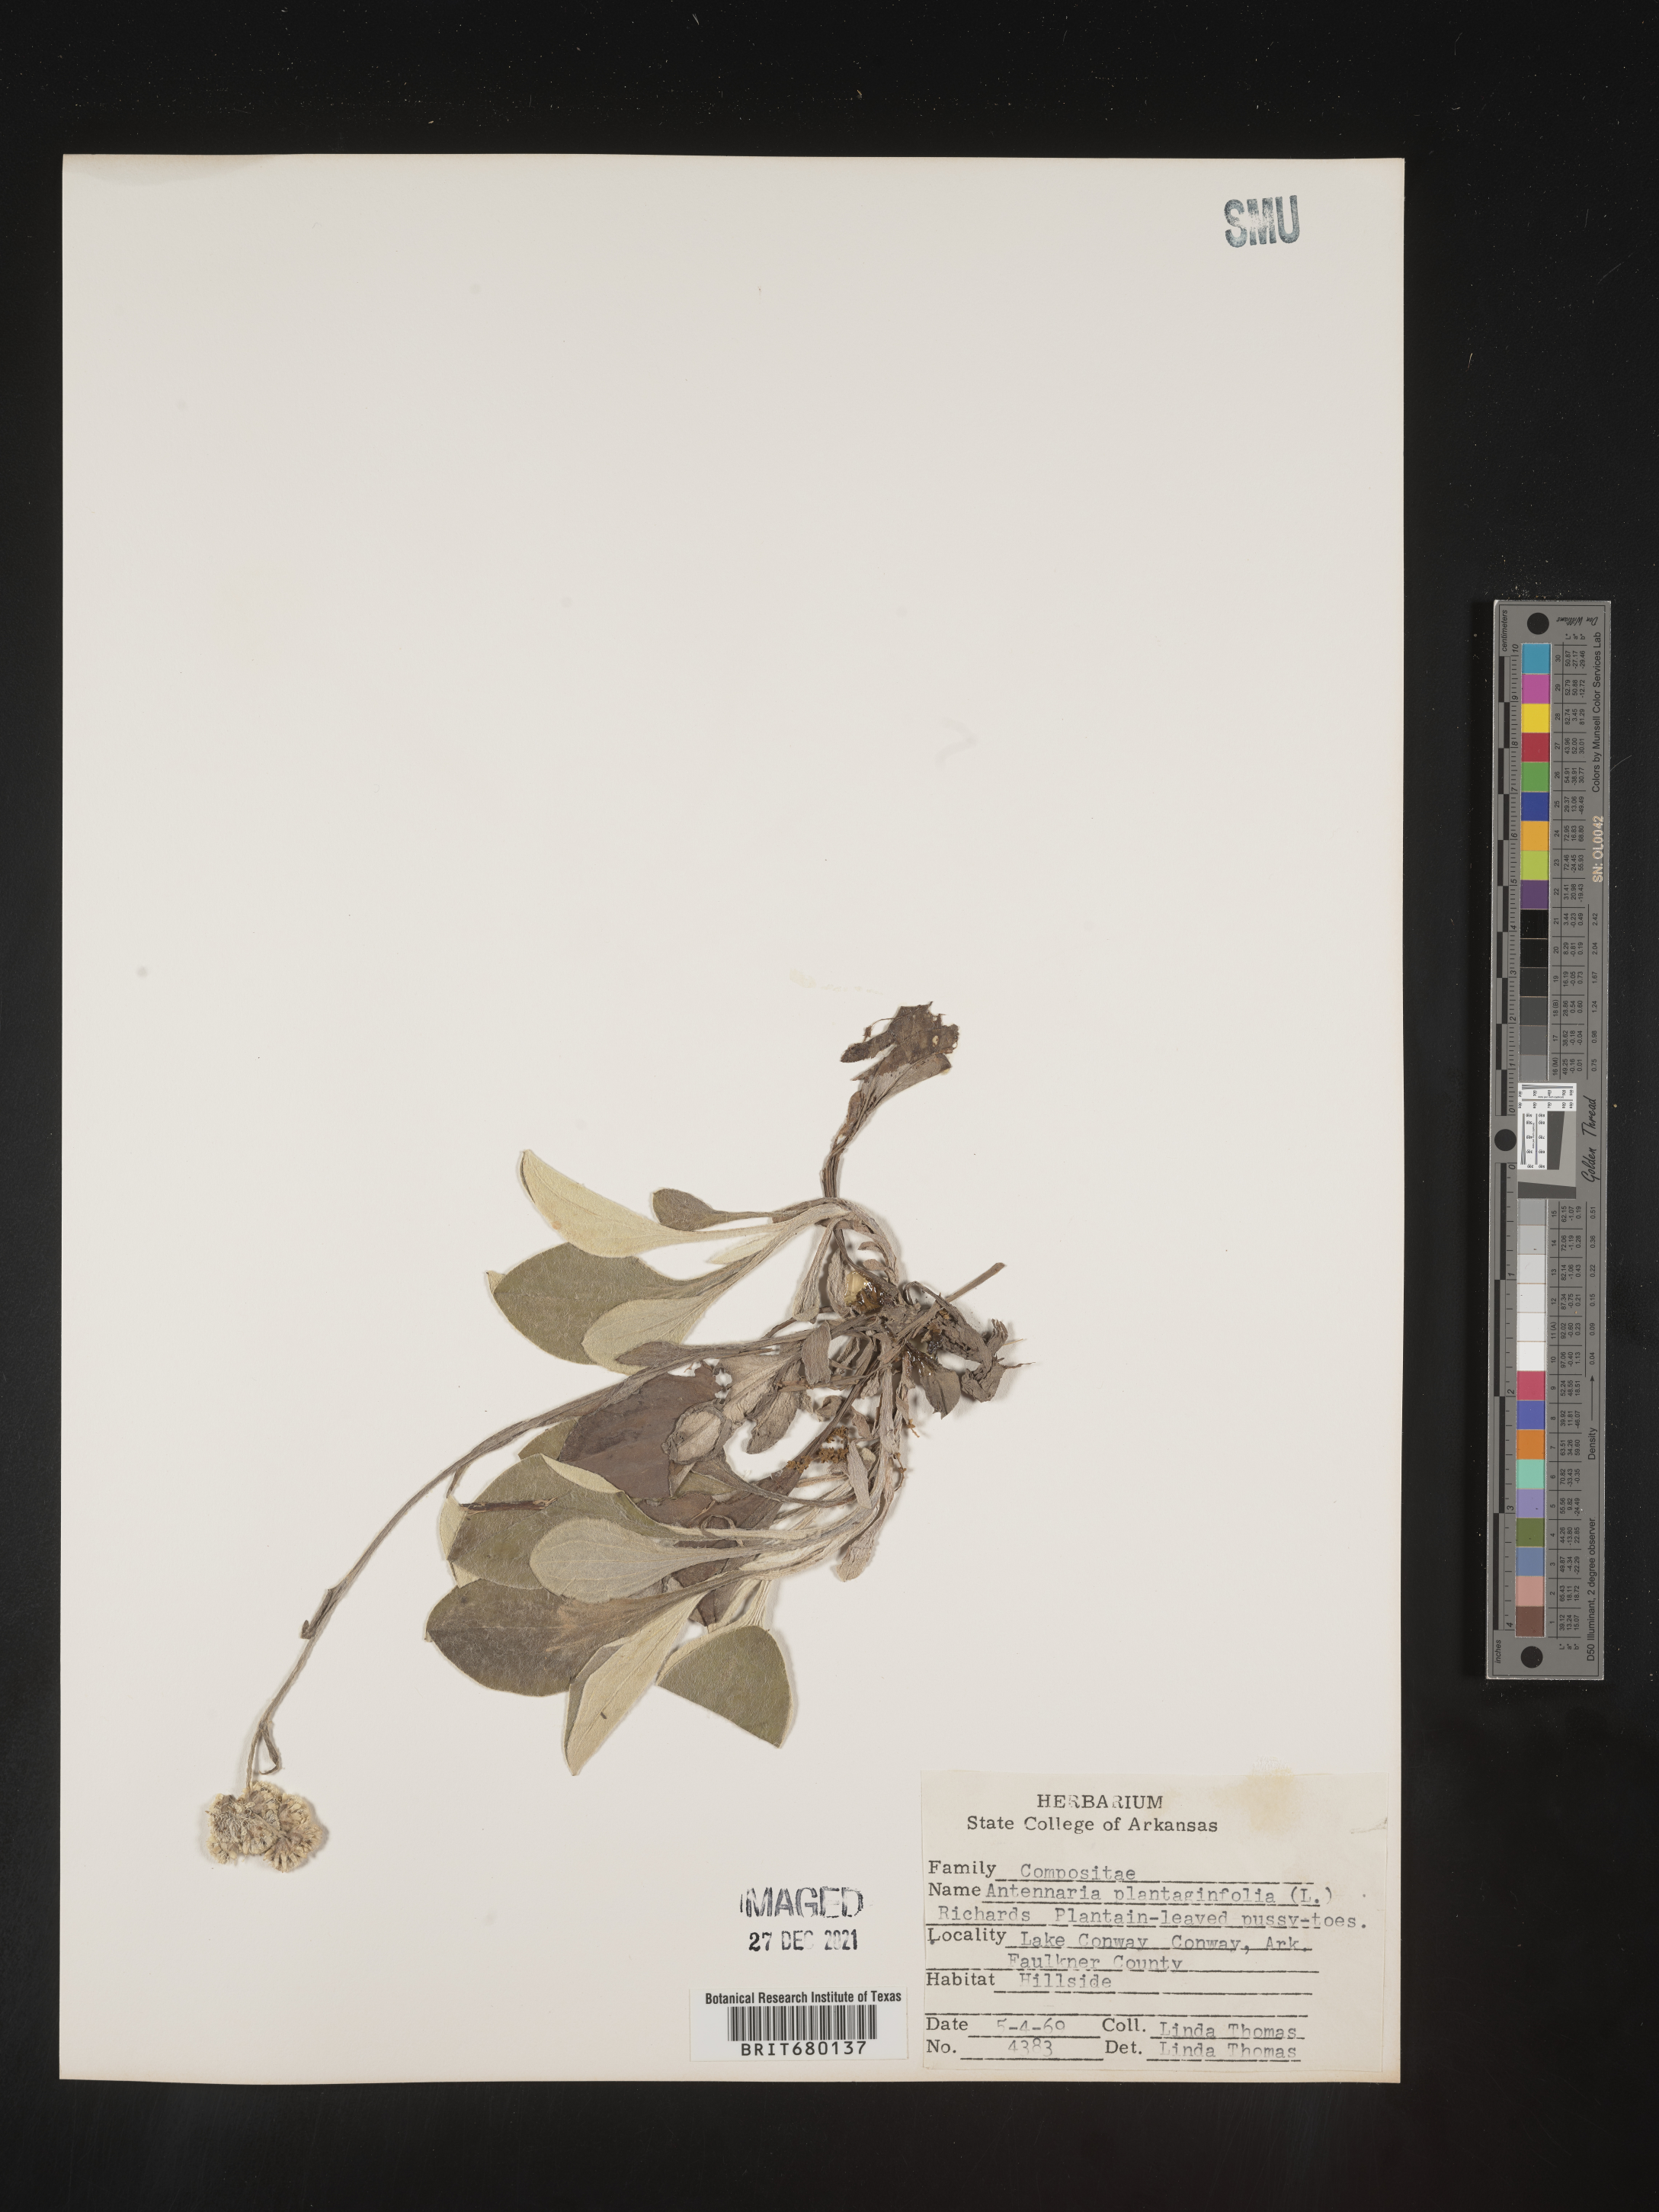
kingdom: Plantae
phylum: Tracheophyta
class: Magnoliopsida
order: Asterales
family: Asteraceae
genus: Antennaria
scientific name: Antennaria plantaginifolia
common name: Plantain-leaved pussytoes
